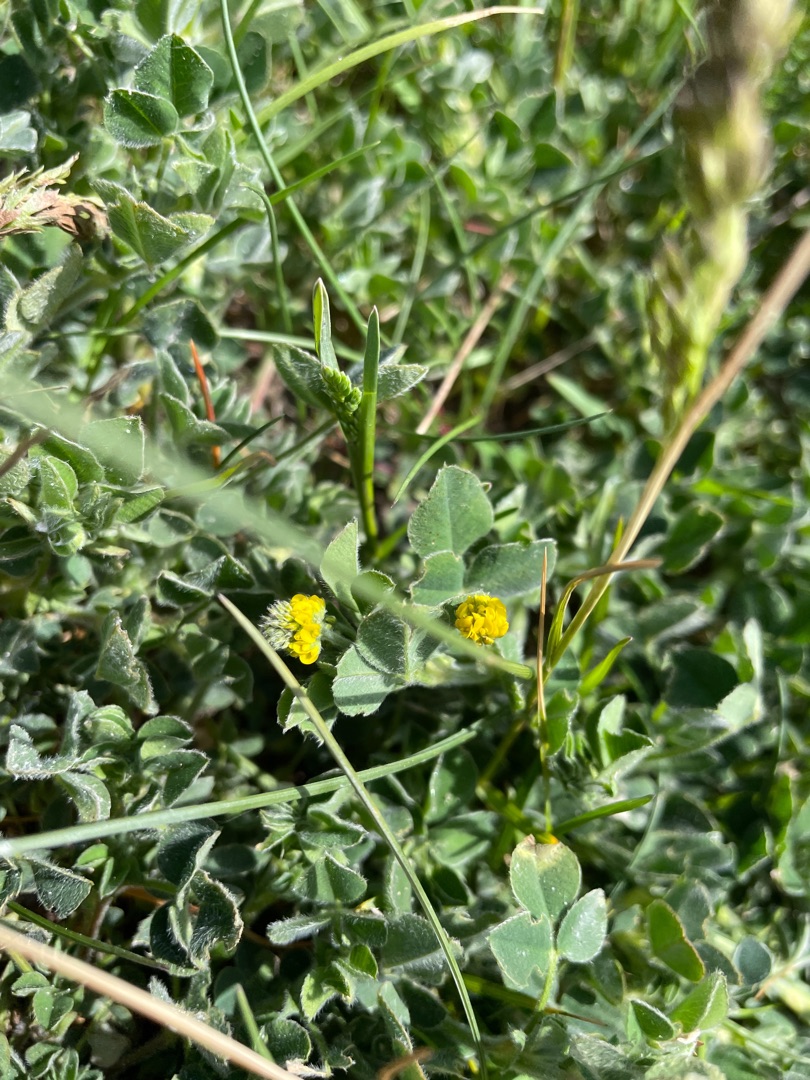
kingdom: Plantae
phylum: Tracheophyta
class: Magnoliopsida
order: Fabales
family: Fabaceae
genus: Medicago
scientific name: Medicago lupulina
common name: Humle-sneglebælg
